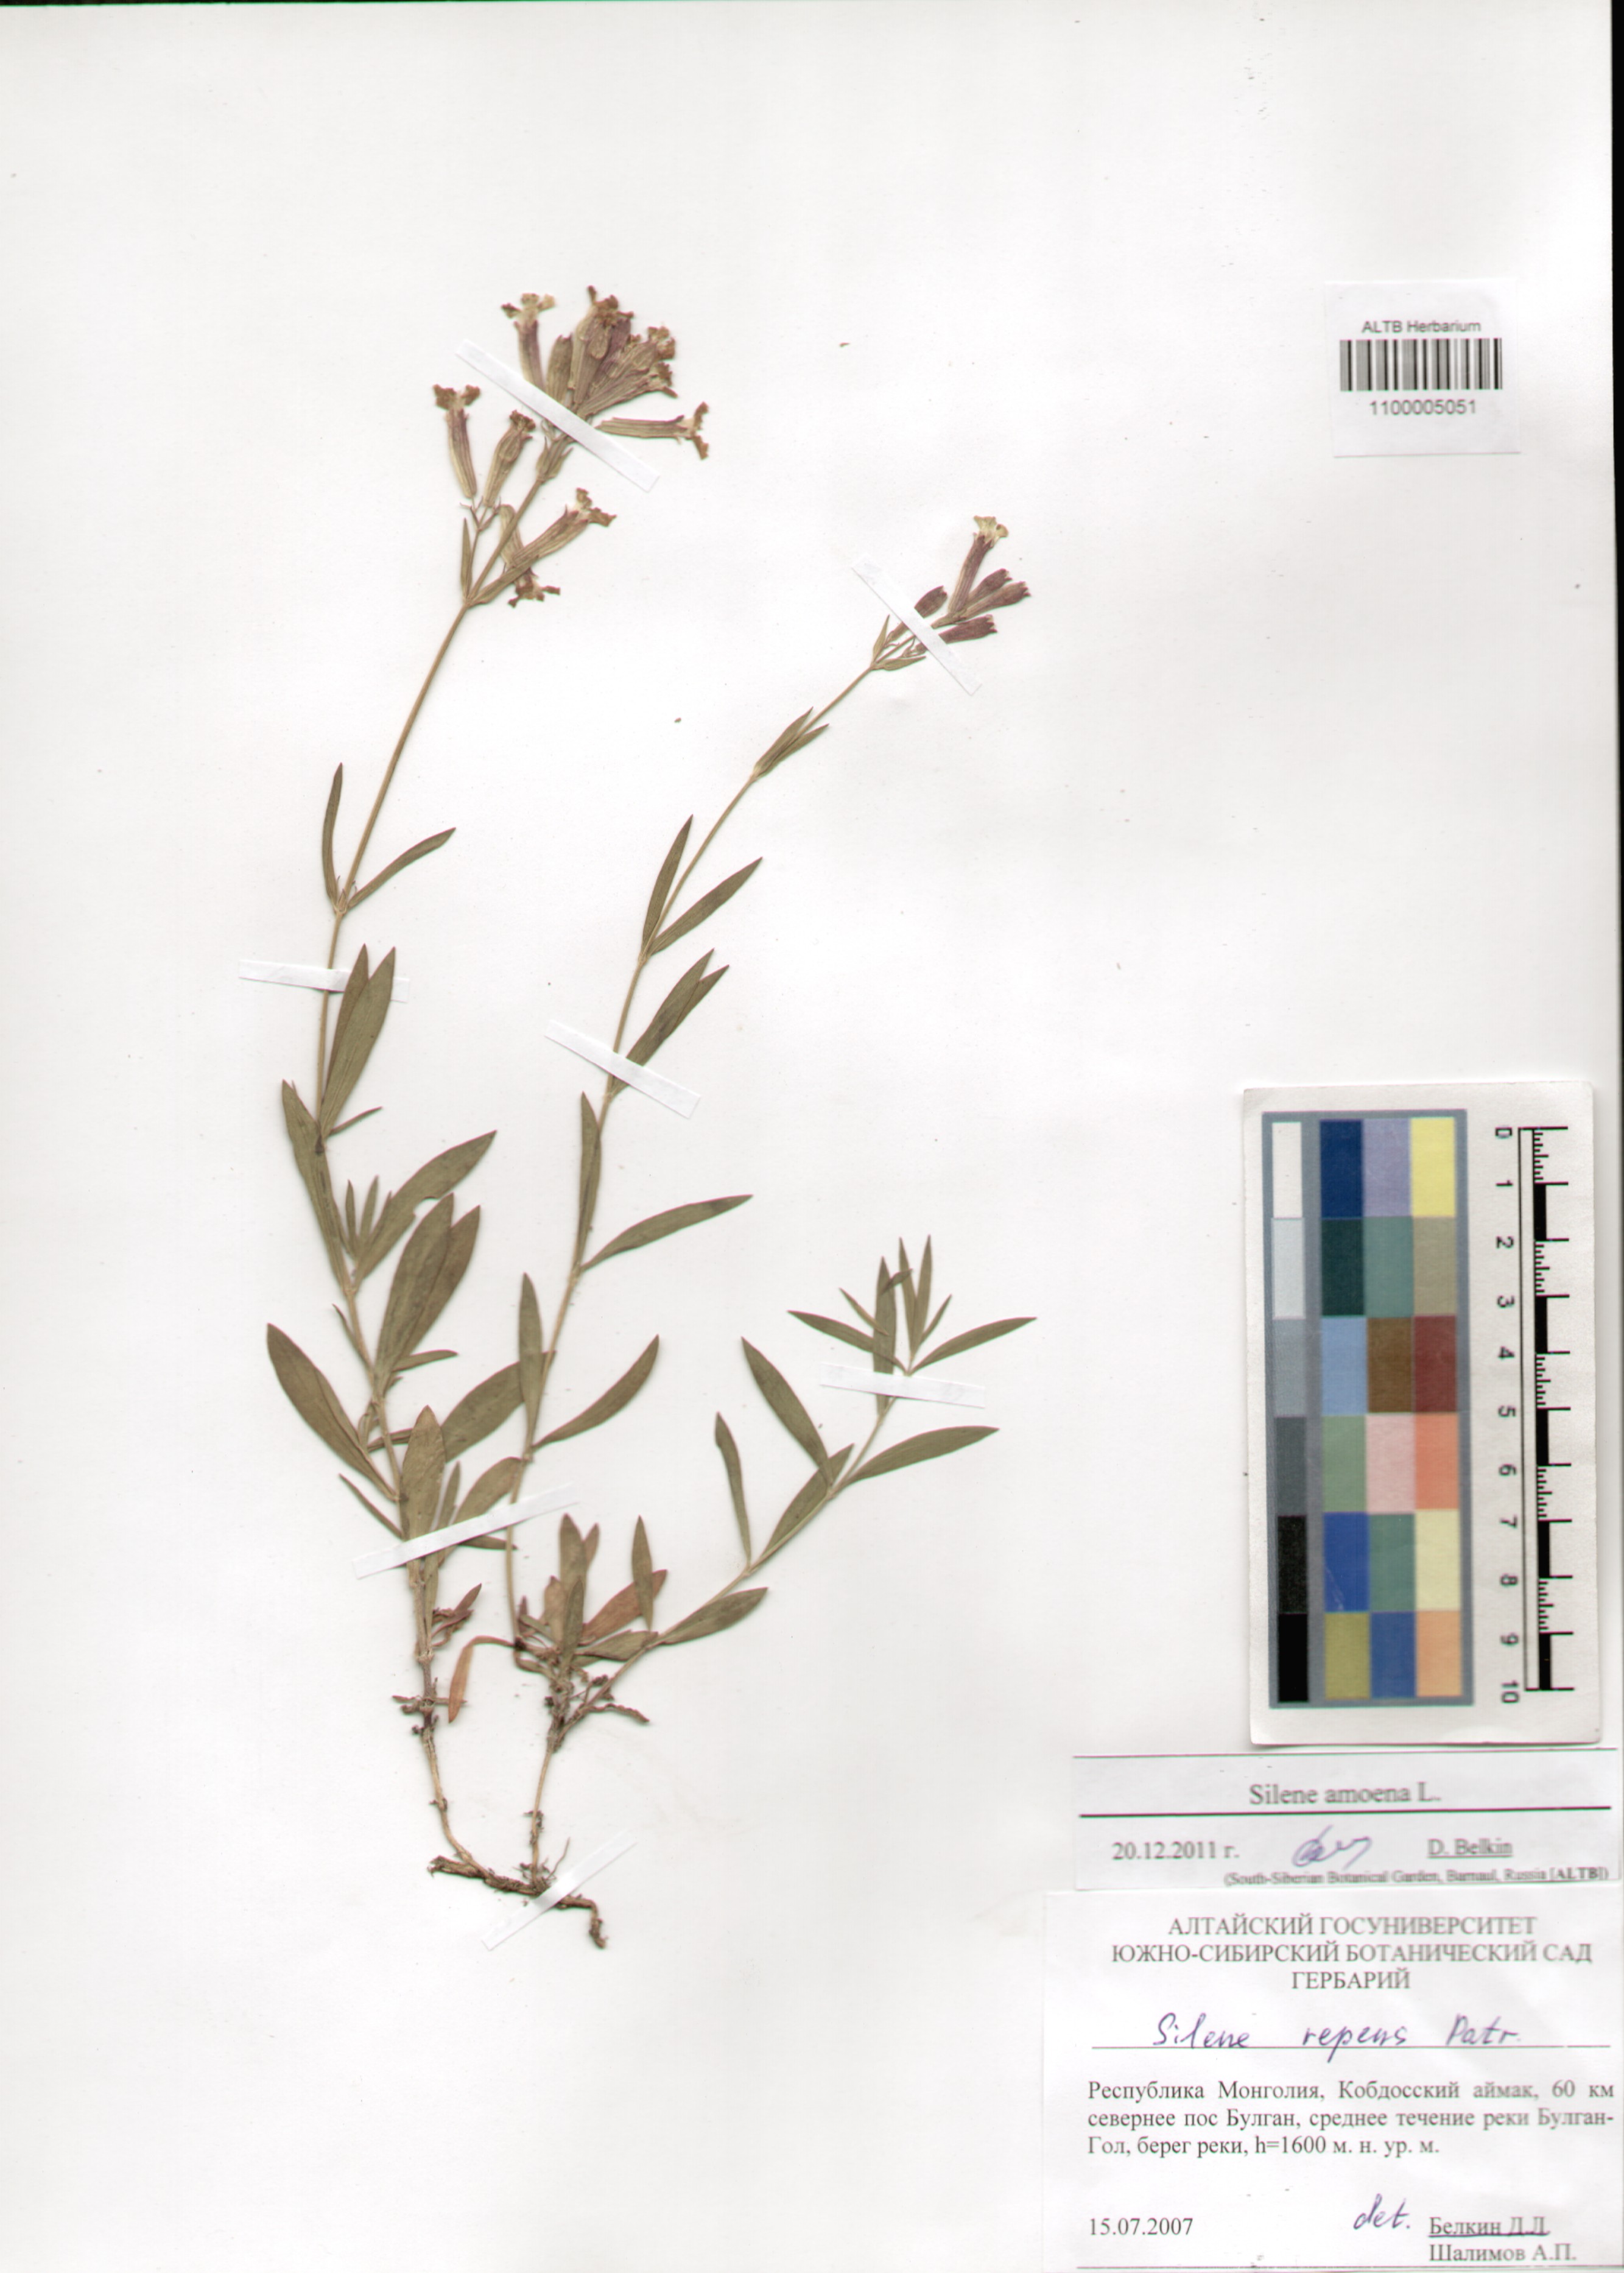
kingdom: Plantae
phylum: Tracheophyta
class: Magnoliopsida
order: Caryophyllales
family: Caryophyllaceae
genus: Silene
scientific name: Silene amoena
